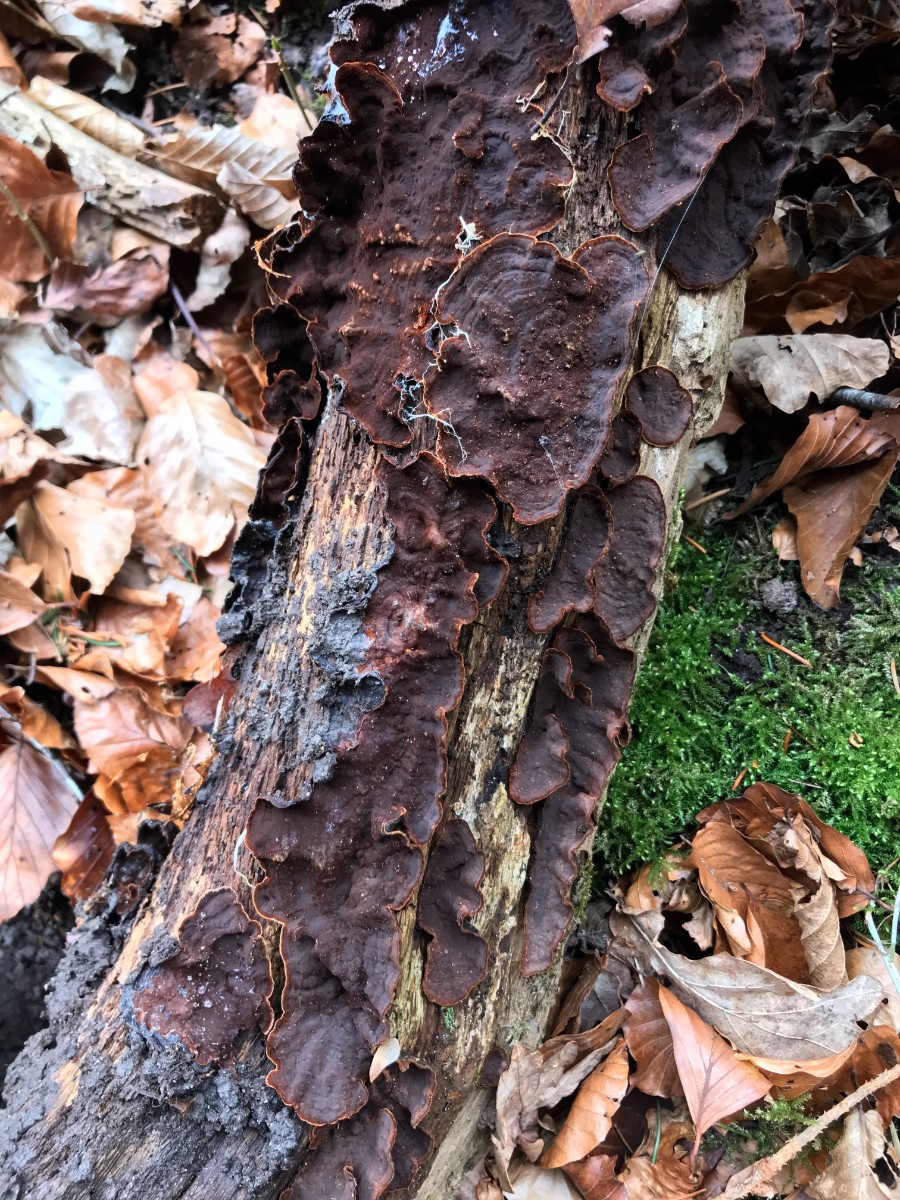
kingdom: Fungi
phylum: Basidiomycota
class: Agaricomycetes
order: Hymenochaetales
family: Hymenochaetaceae
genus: Hymenochaete
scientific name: Hymenochaete rubiginosa
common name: stiv ruslædersvamp
